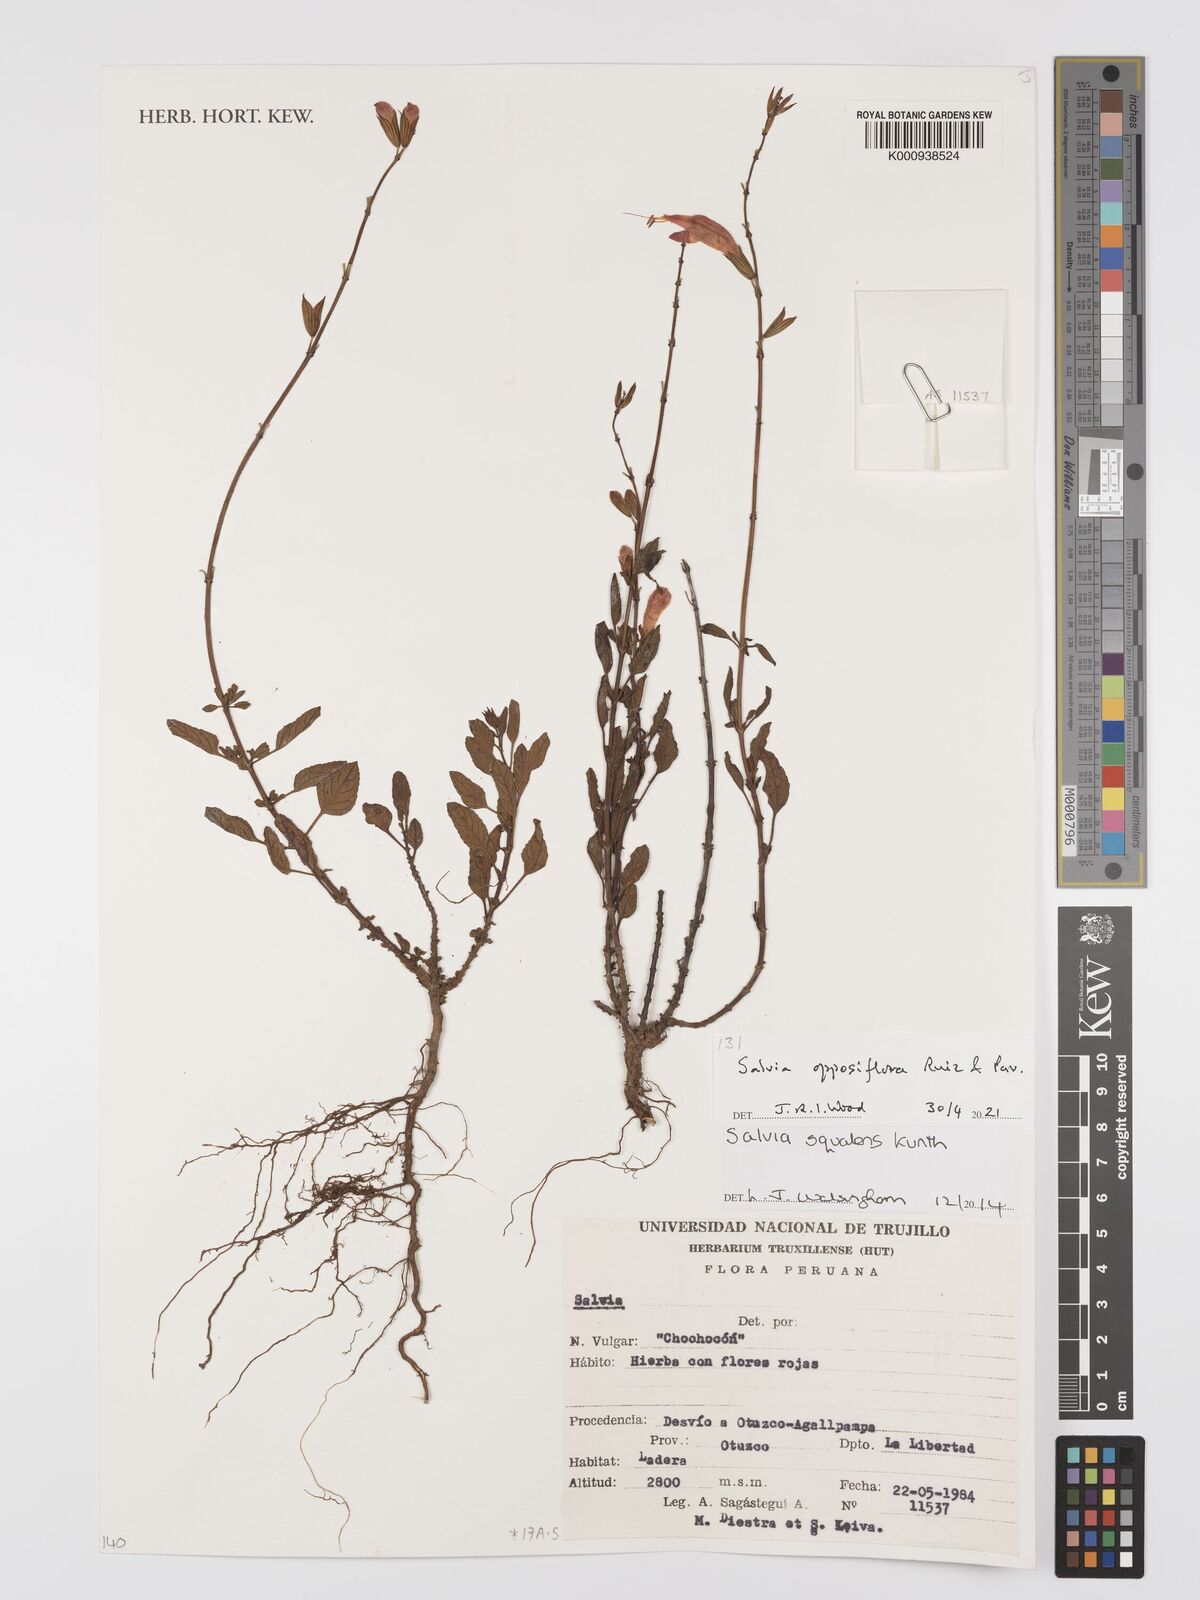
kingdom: Plantae
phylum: Tracheophyta
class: Magnoliopsida
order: Lamiales
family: Lamiaceae
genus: Salvia
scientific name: Salvia squalens
